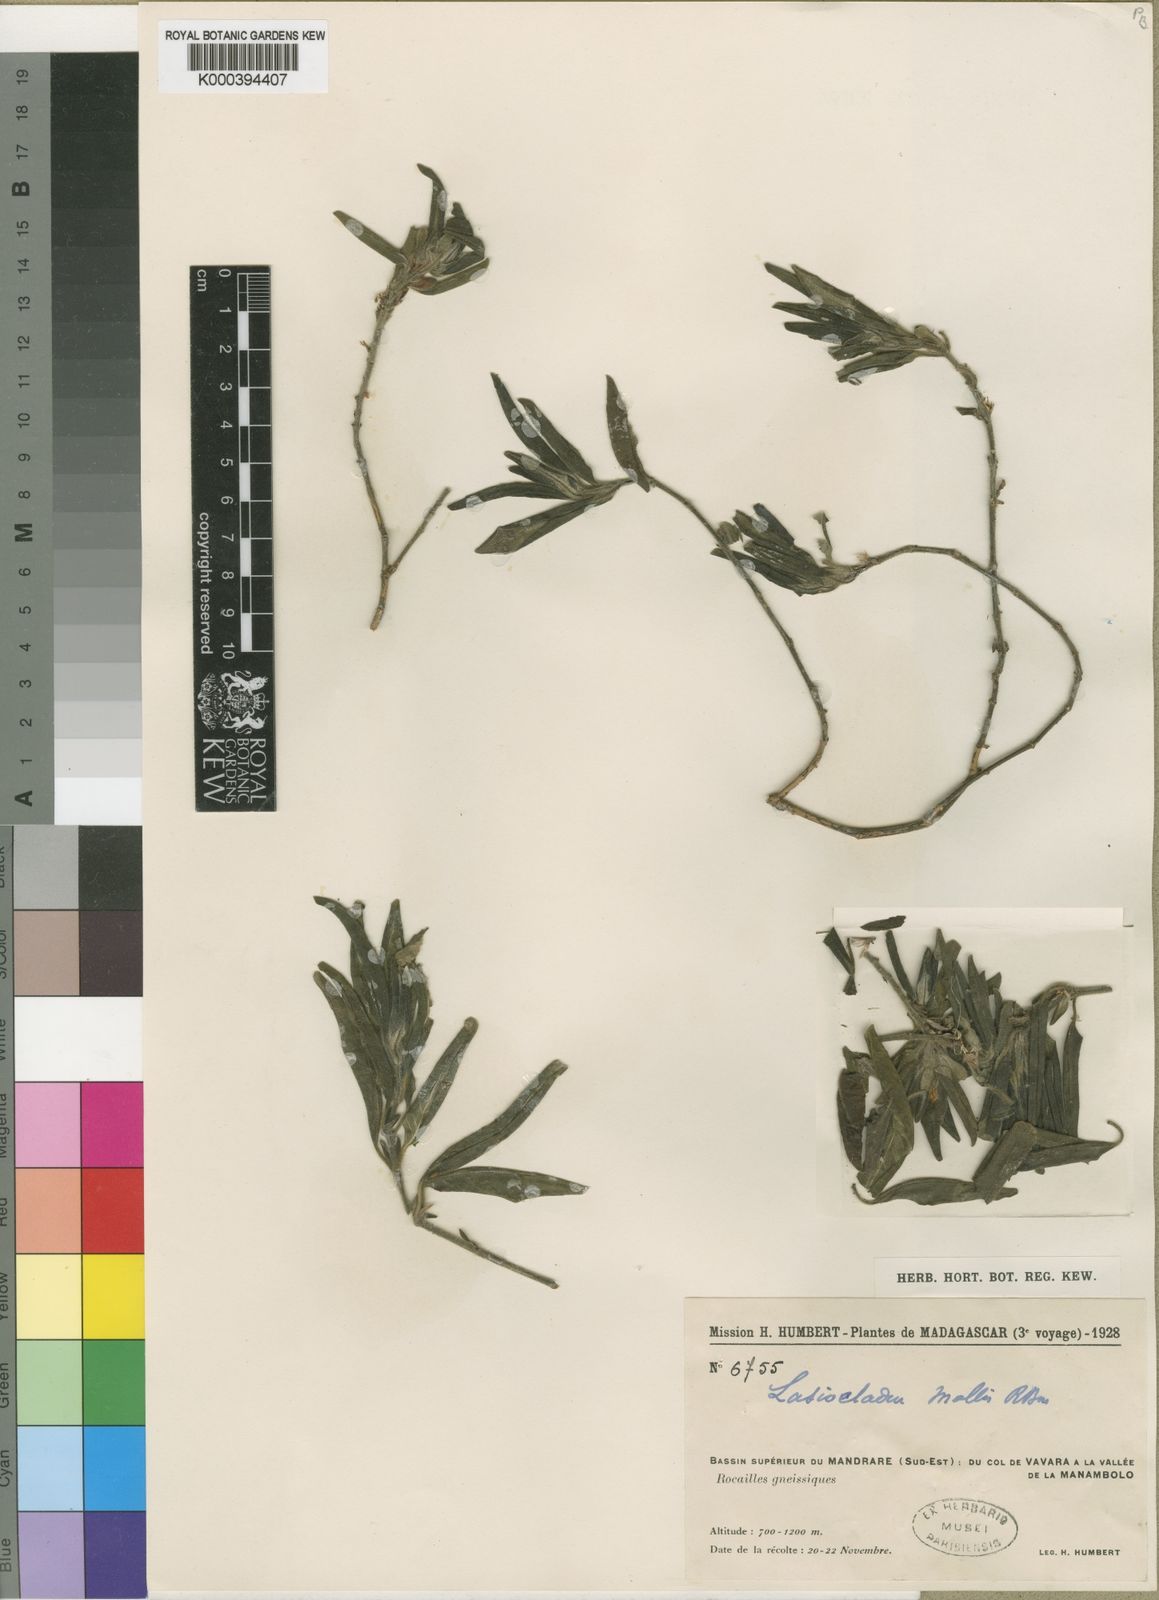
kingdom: Plantae
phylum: Tracheophyta
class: Magnoliopsida
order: Lamiales
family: Acanthaceae
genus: Lasiocladus
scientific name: Lasiocladus anthospermifolius
